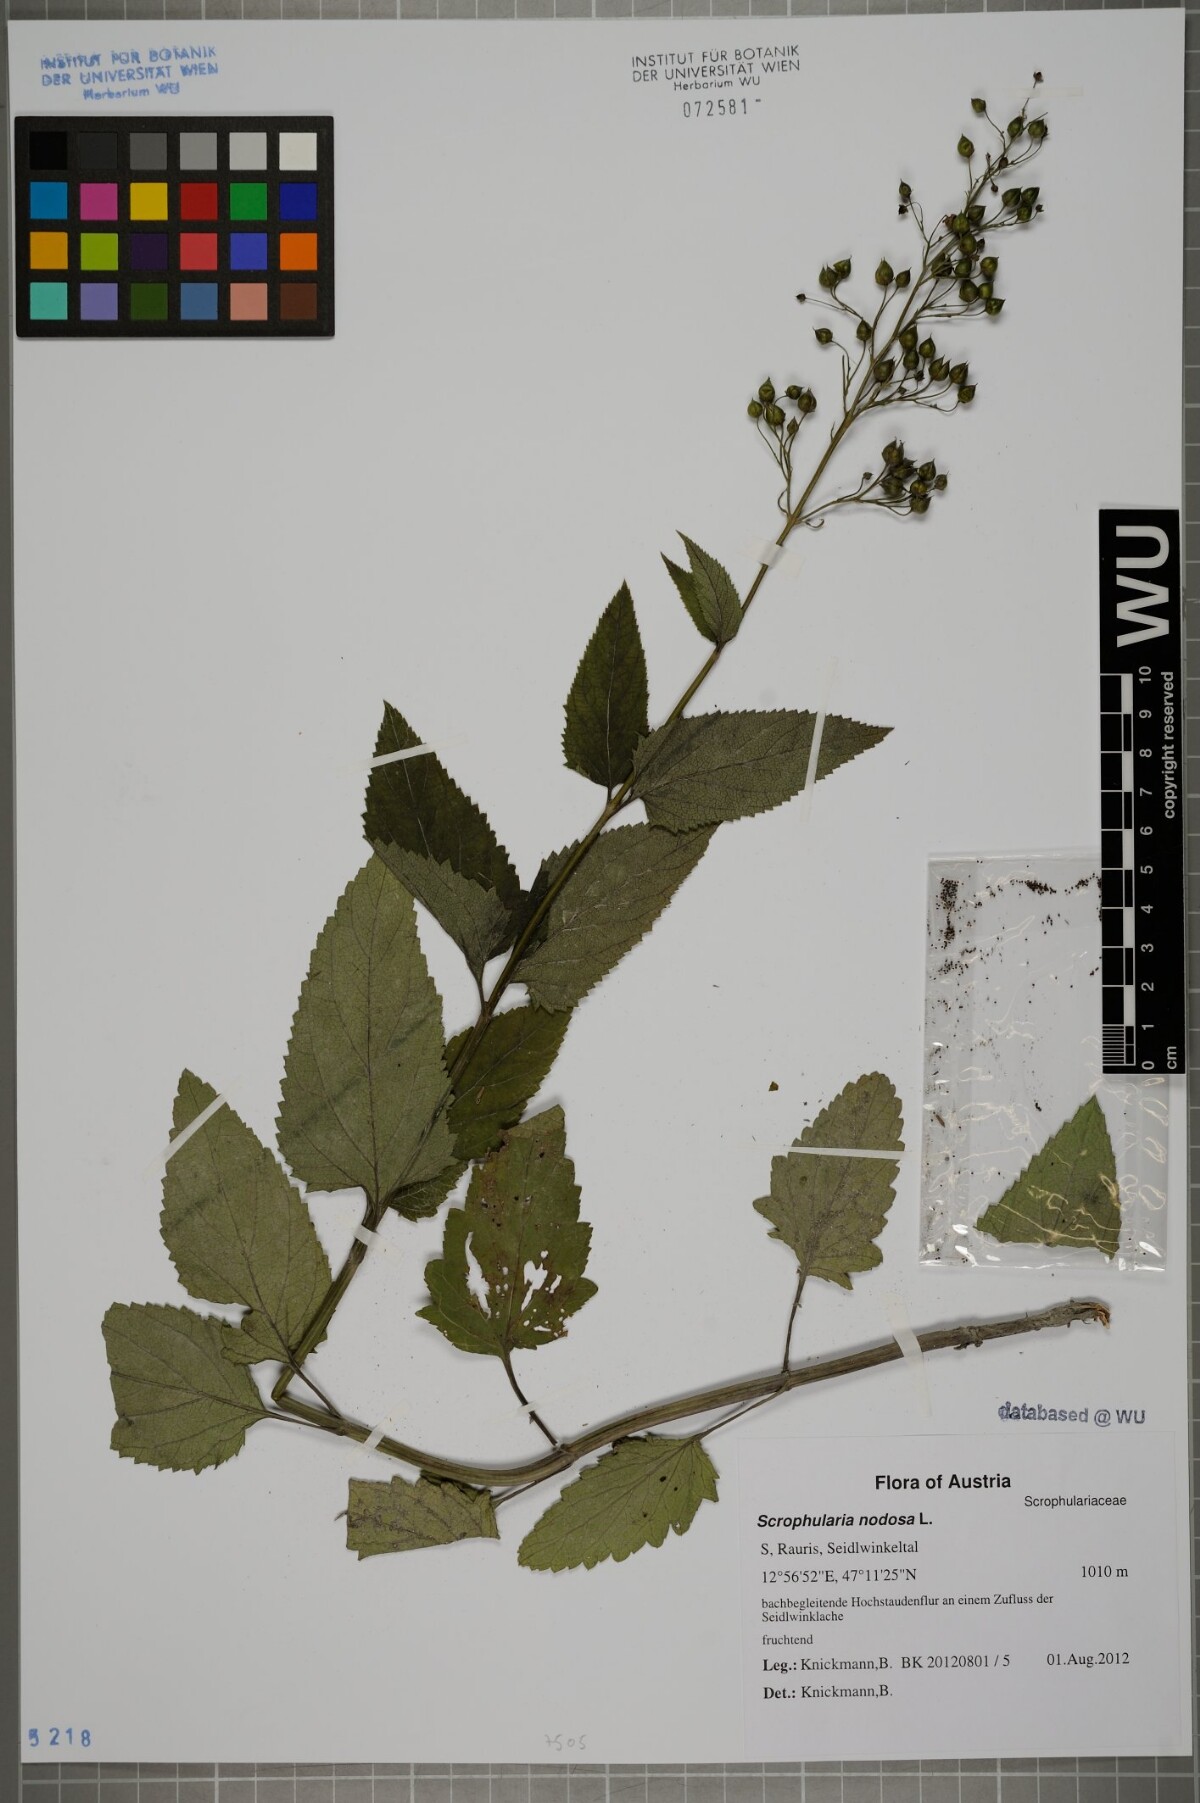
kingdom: Plantae
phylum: Tracheophyta
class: Magnoliopsida
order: Lamiales
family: Scrophulariaceae
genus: Scrophularia
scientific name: Scrophularia nodosa
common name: Common figwort
